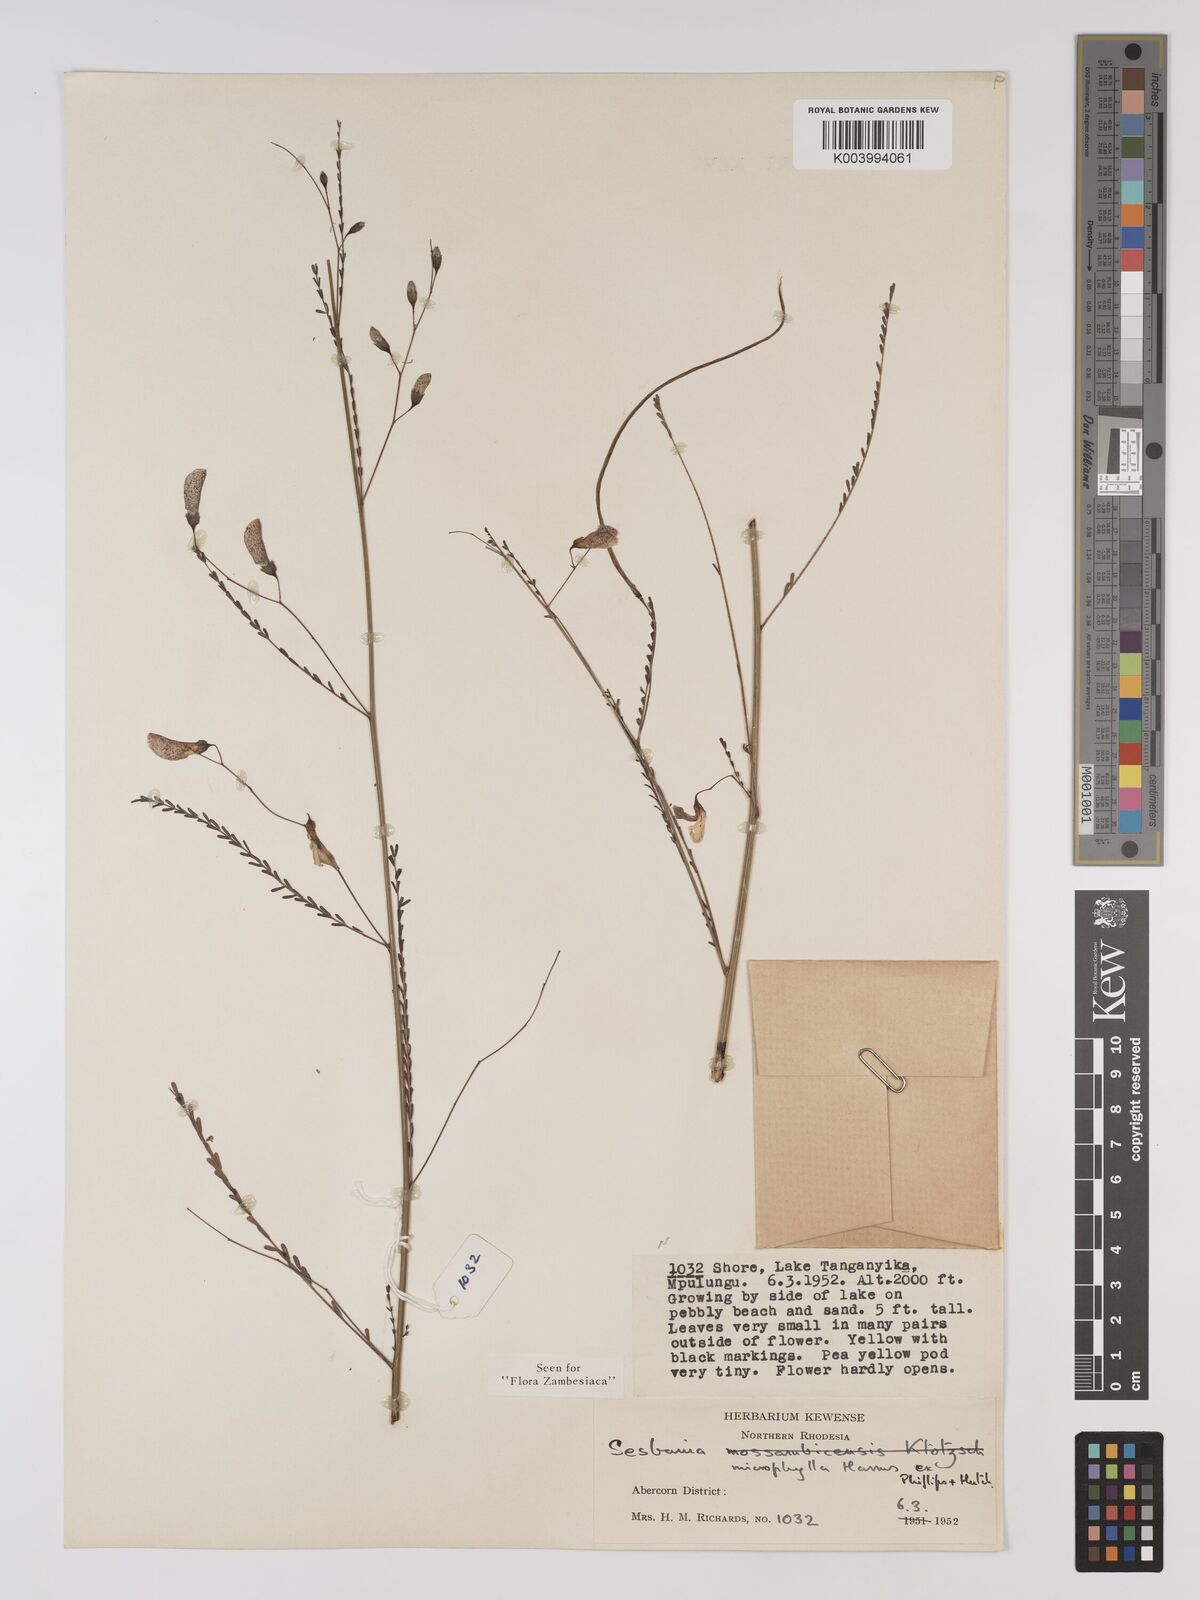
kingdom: Plantae
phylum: Tracheophyta
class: Magnoliopsida
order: Fabales
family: Fabaceae
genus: Sesbania
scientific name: Sesbania microphylla
